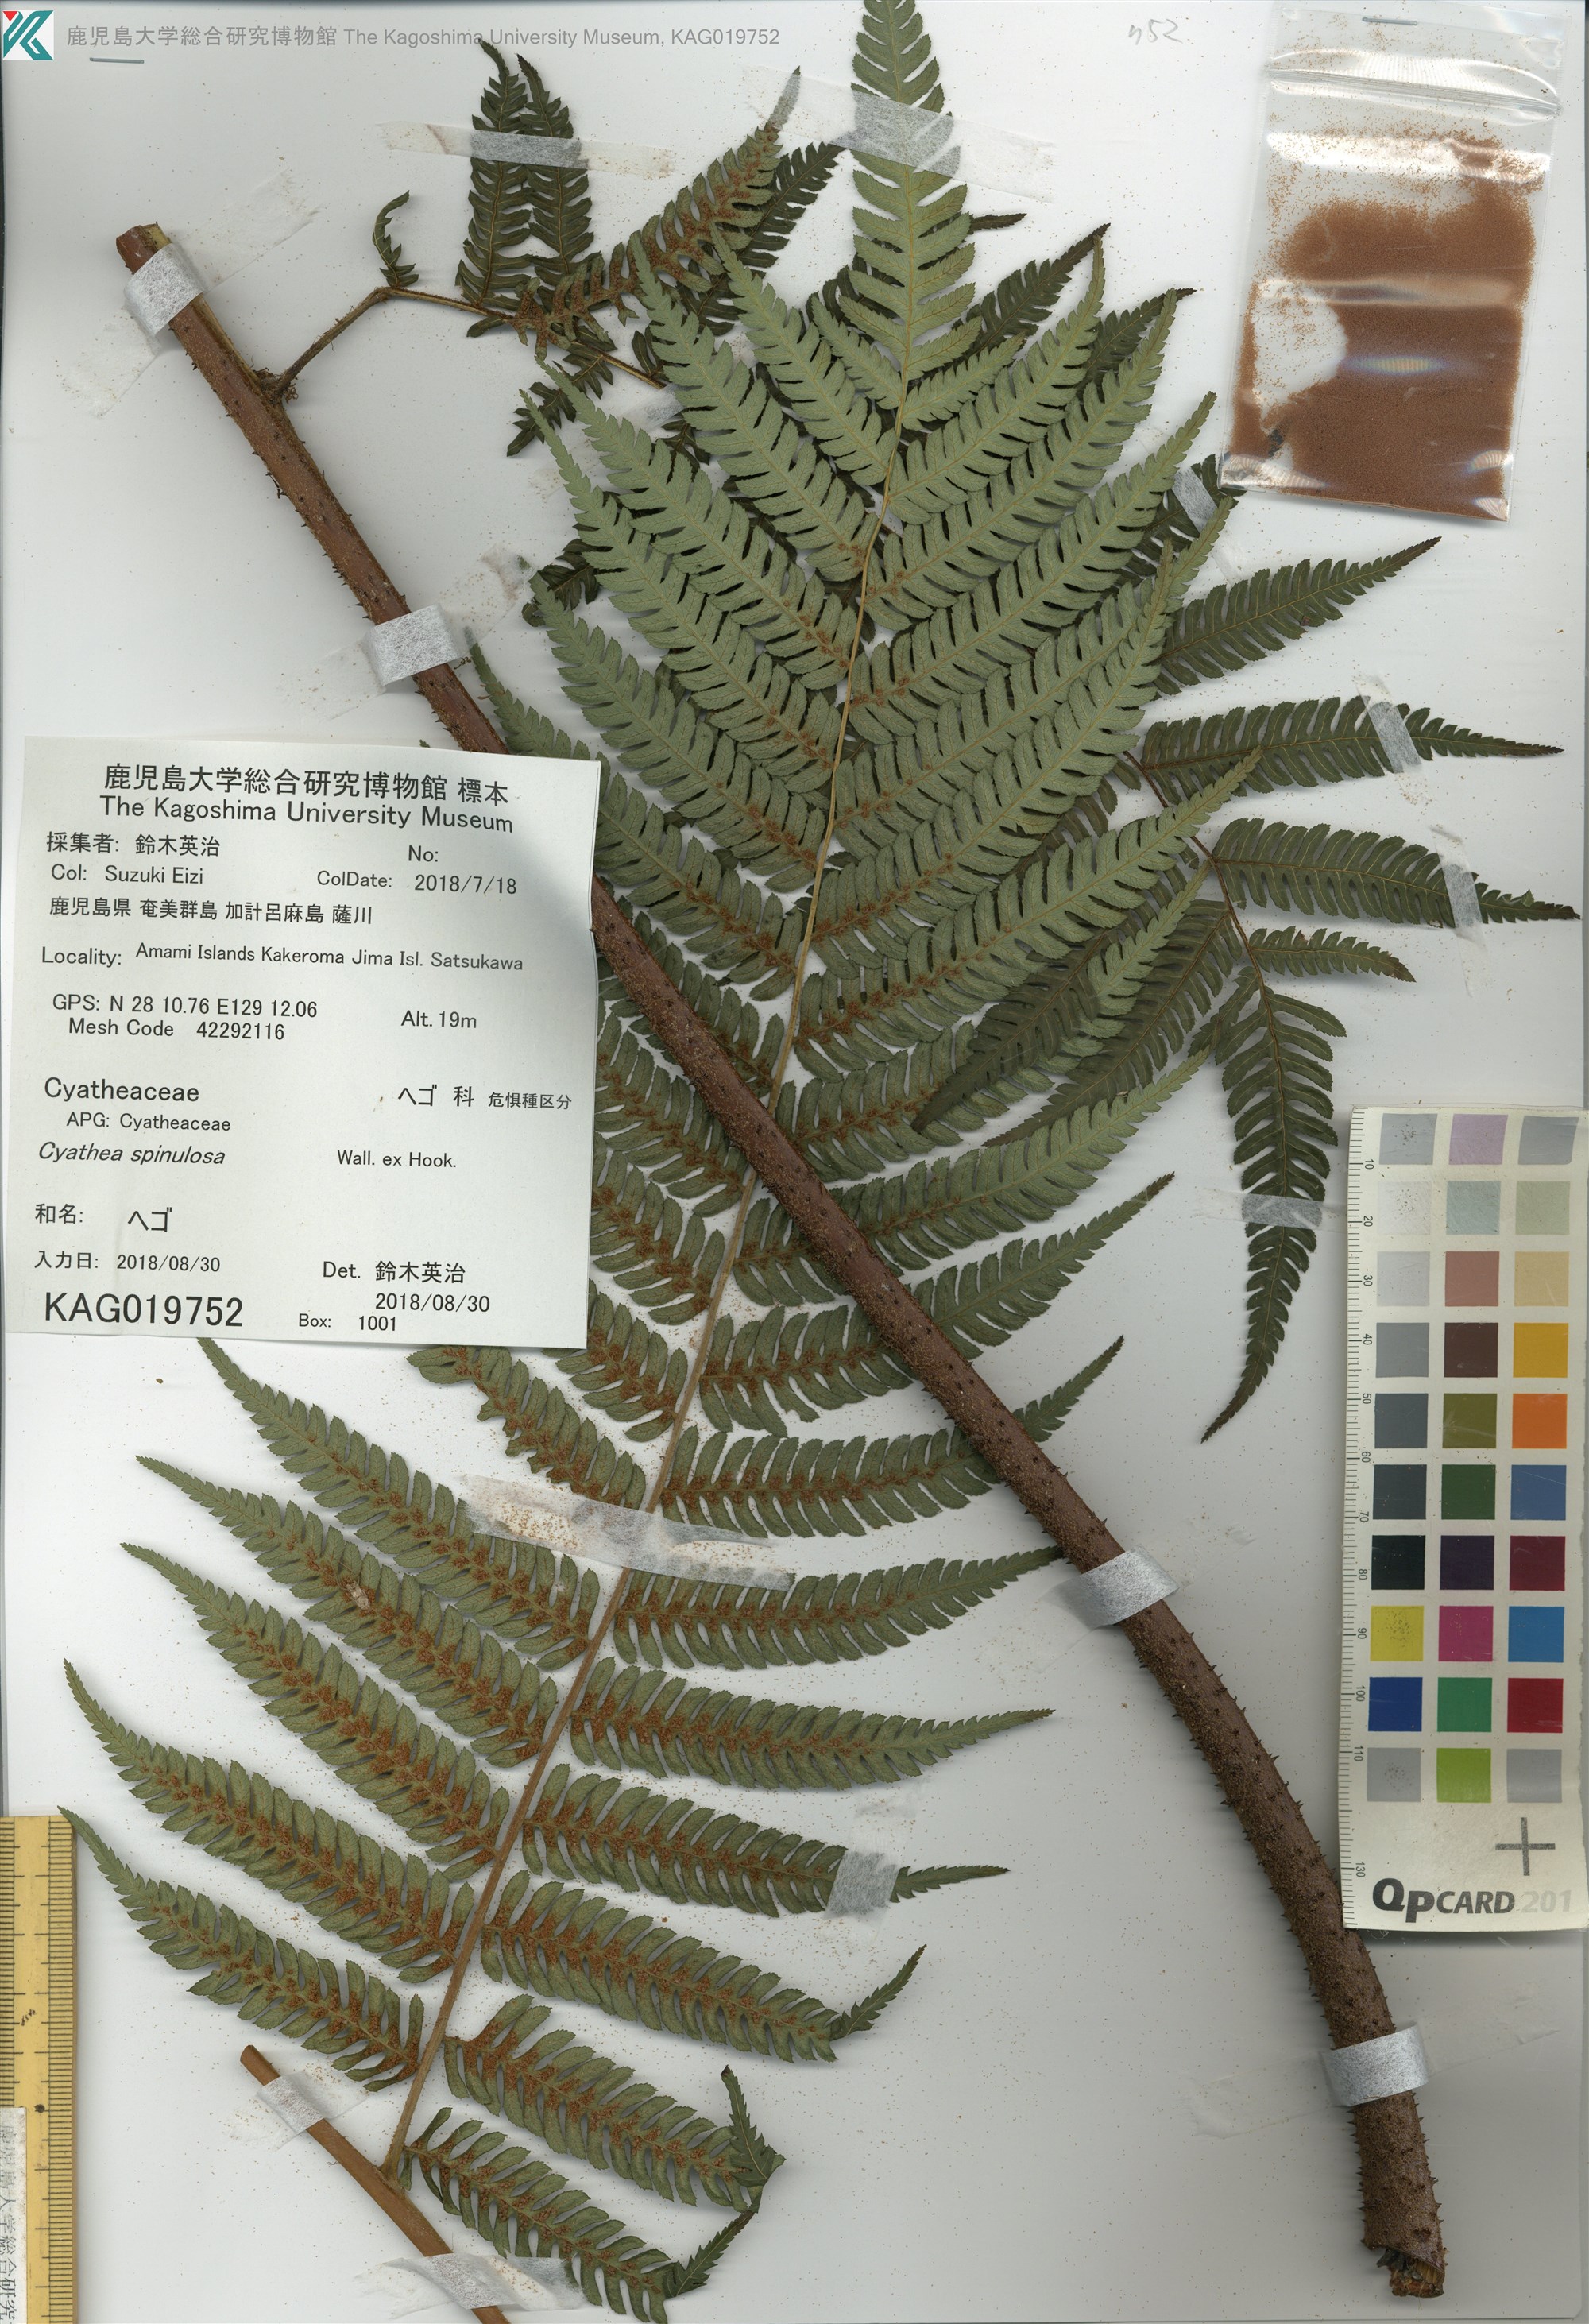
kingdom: Plantae
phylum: Tracheophyta
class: Polypodiopsida
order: Cyatheales
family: Cyatheaceae
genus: Alsophila
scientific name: Alsophila spinulosa
